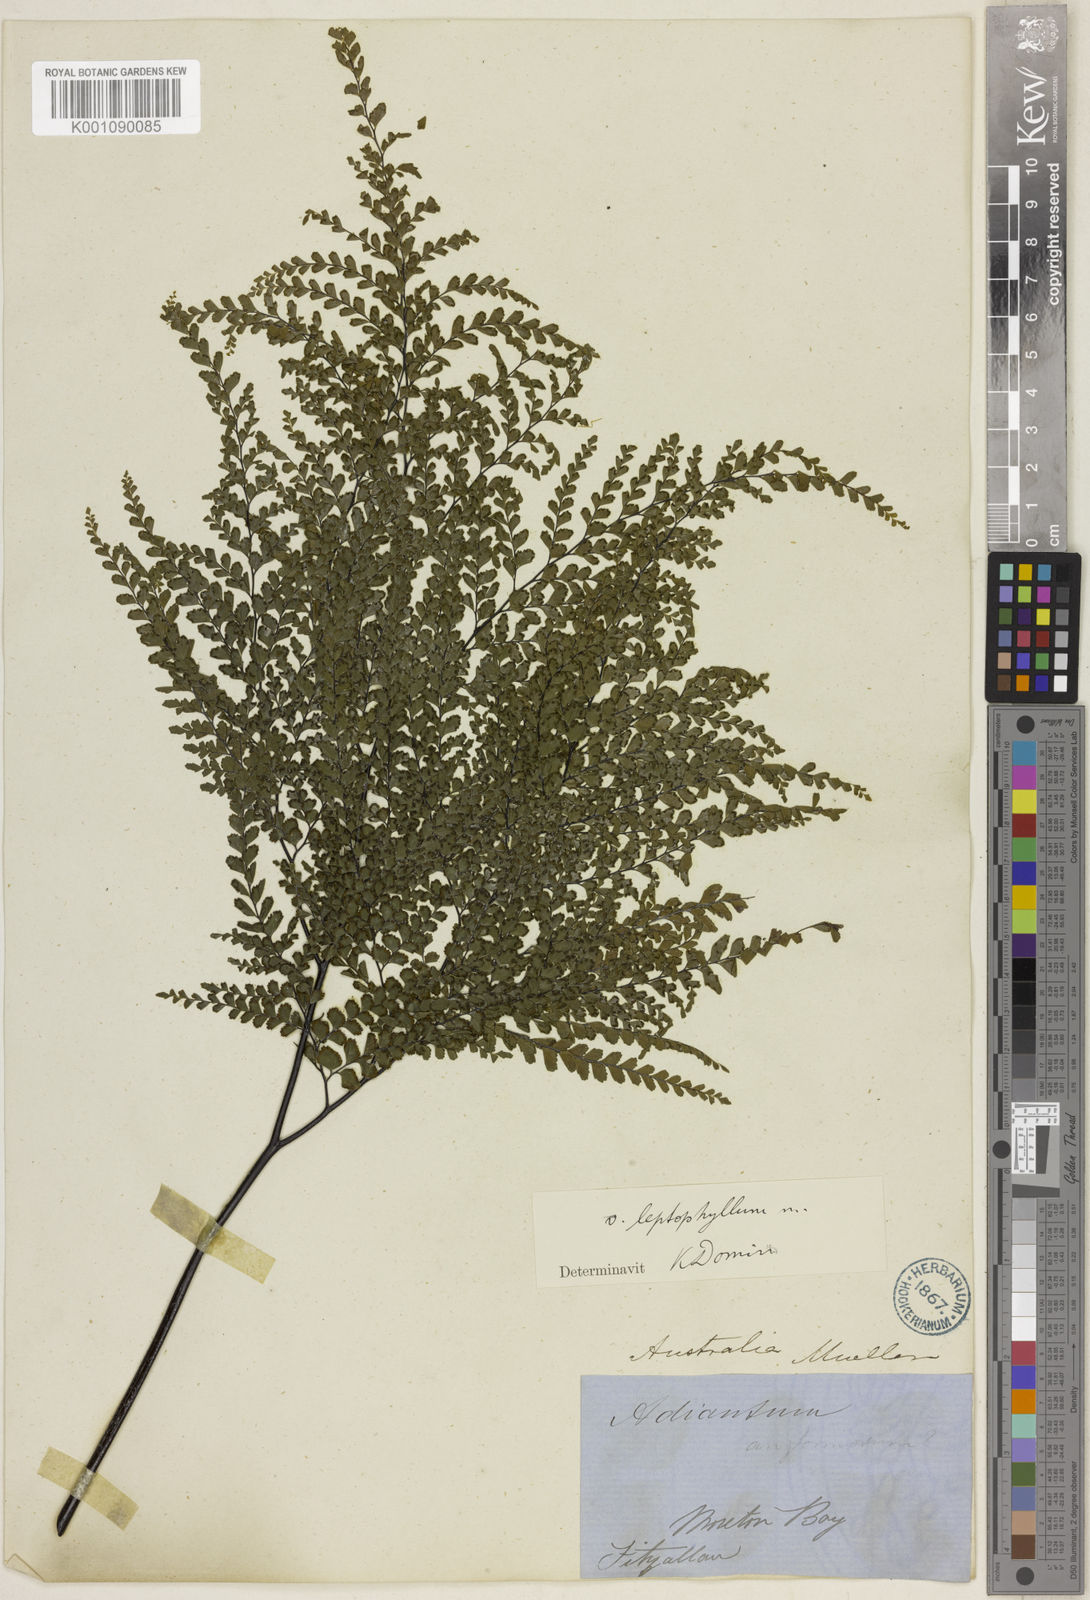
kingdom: Plantae
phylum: Tracheophyta
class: Polypodiopsida
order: Polypodiales
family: Pteridaceae
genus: Adiantum
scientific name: Adiantum formosum
